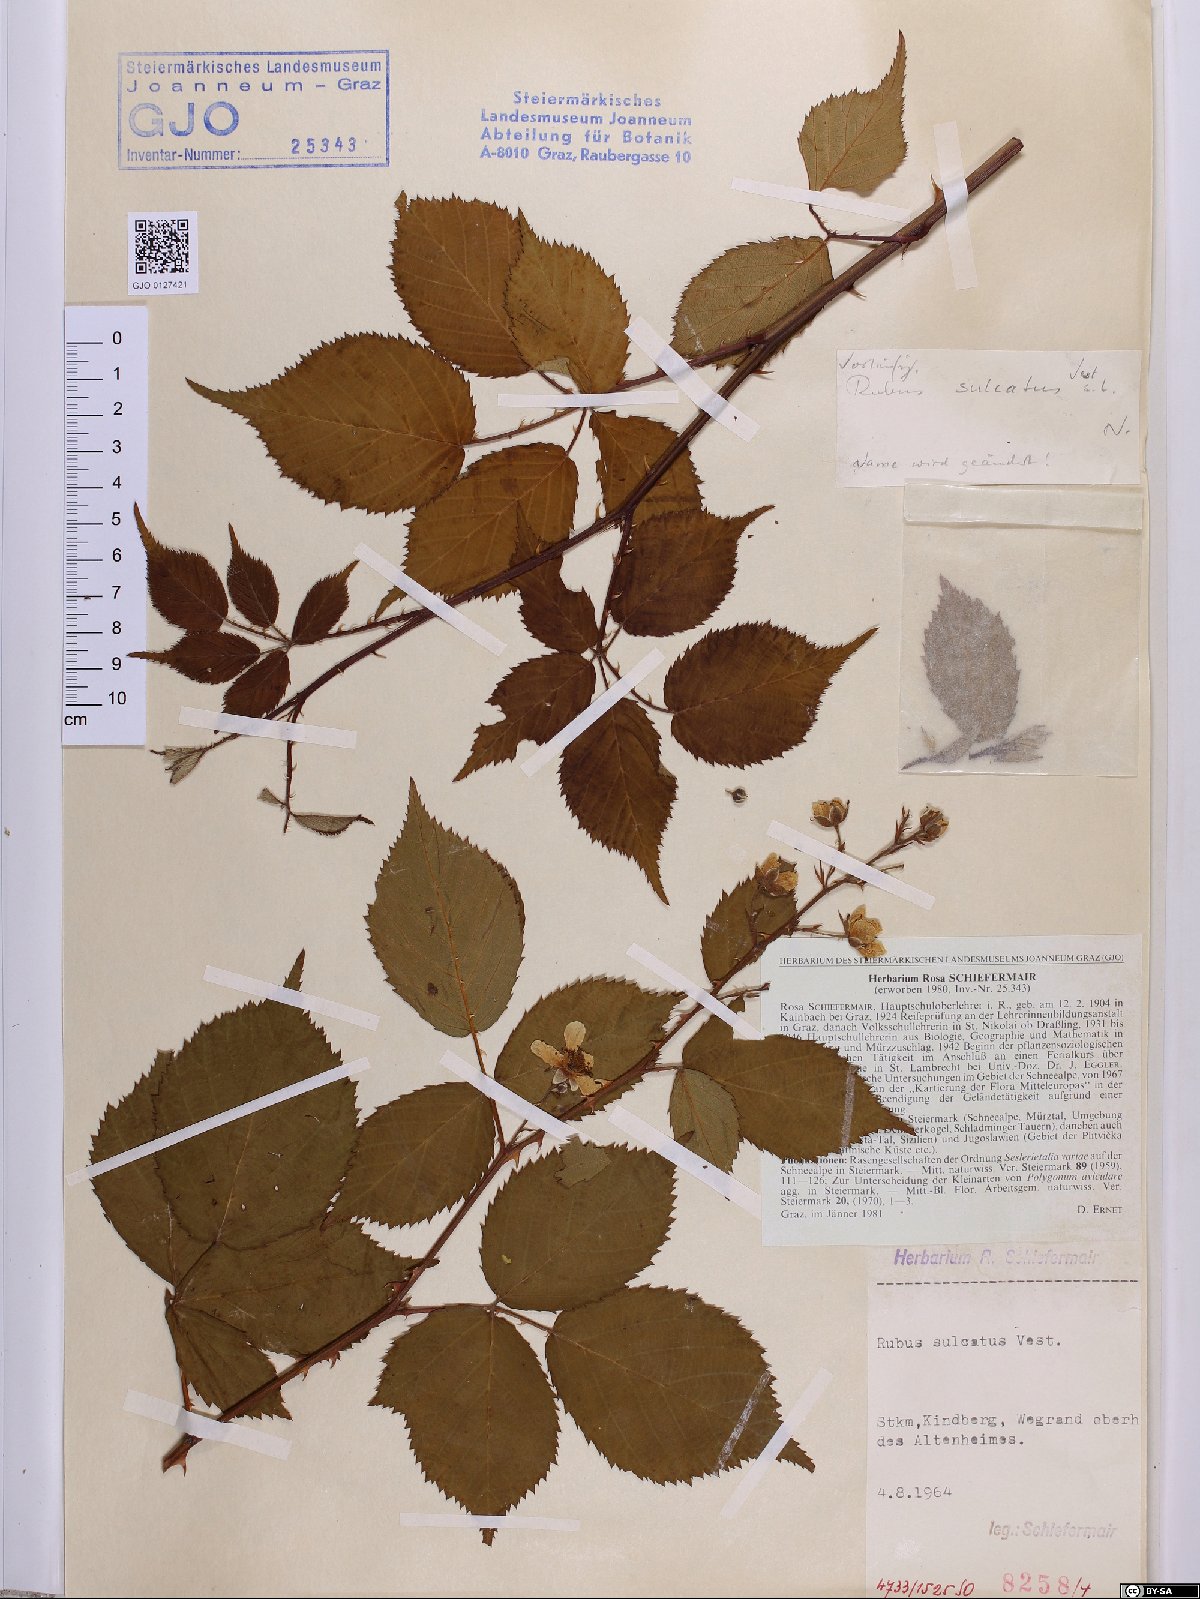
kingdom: Plantae
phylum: Tracheophyta
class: Magnoliopsida
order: Rosales
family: Rosaceae
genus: Rubus
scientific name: Rubus sulcatus
